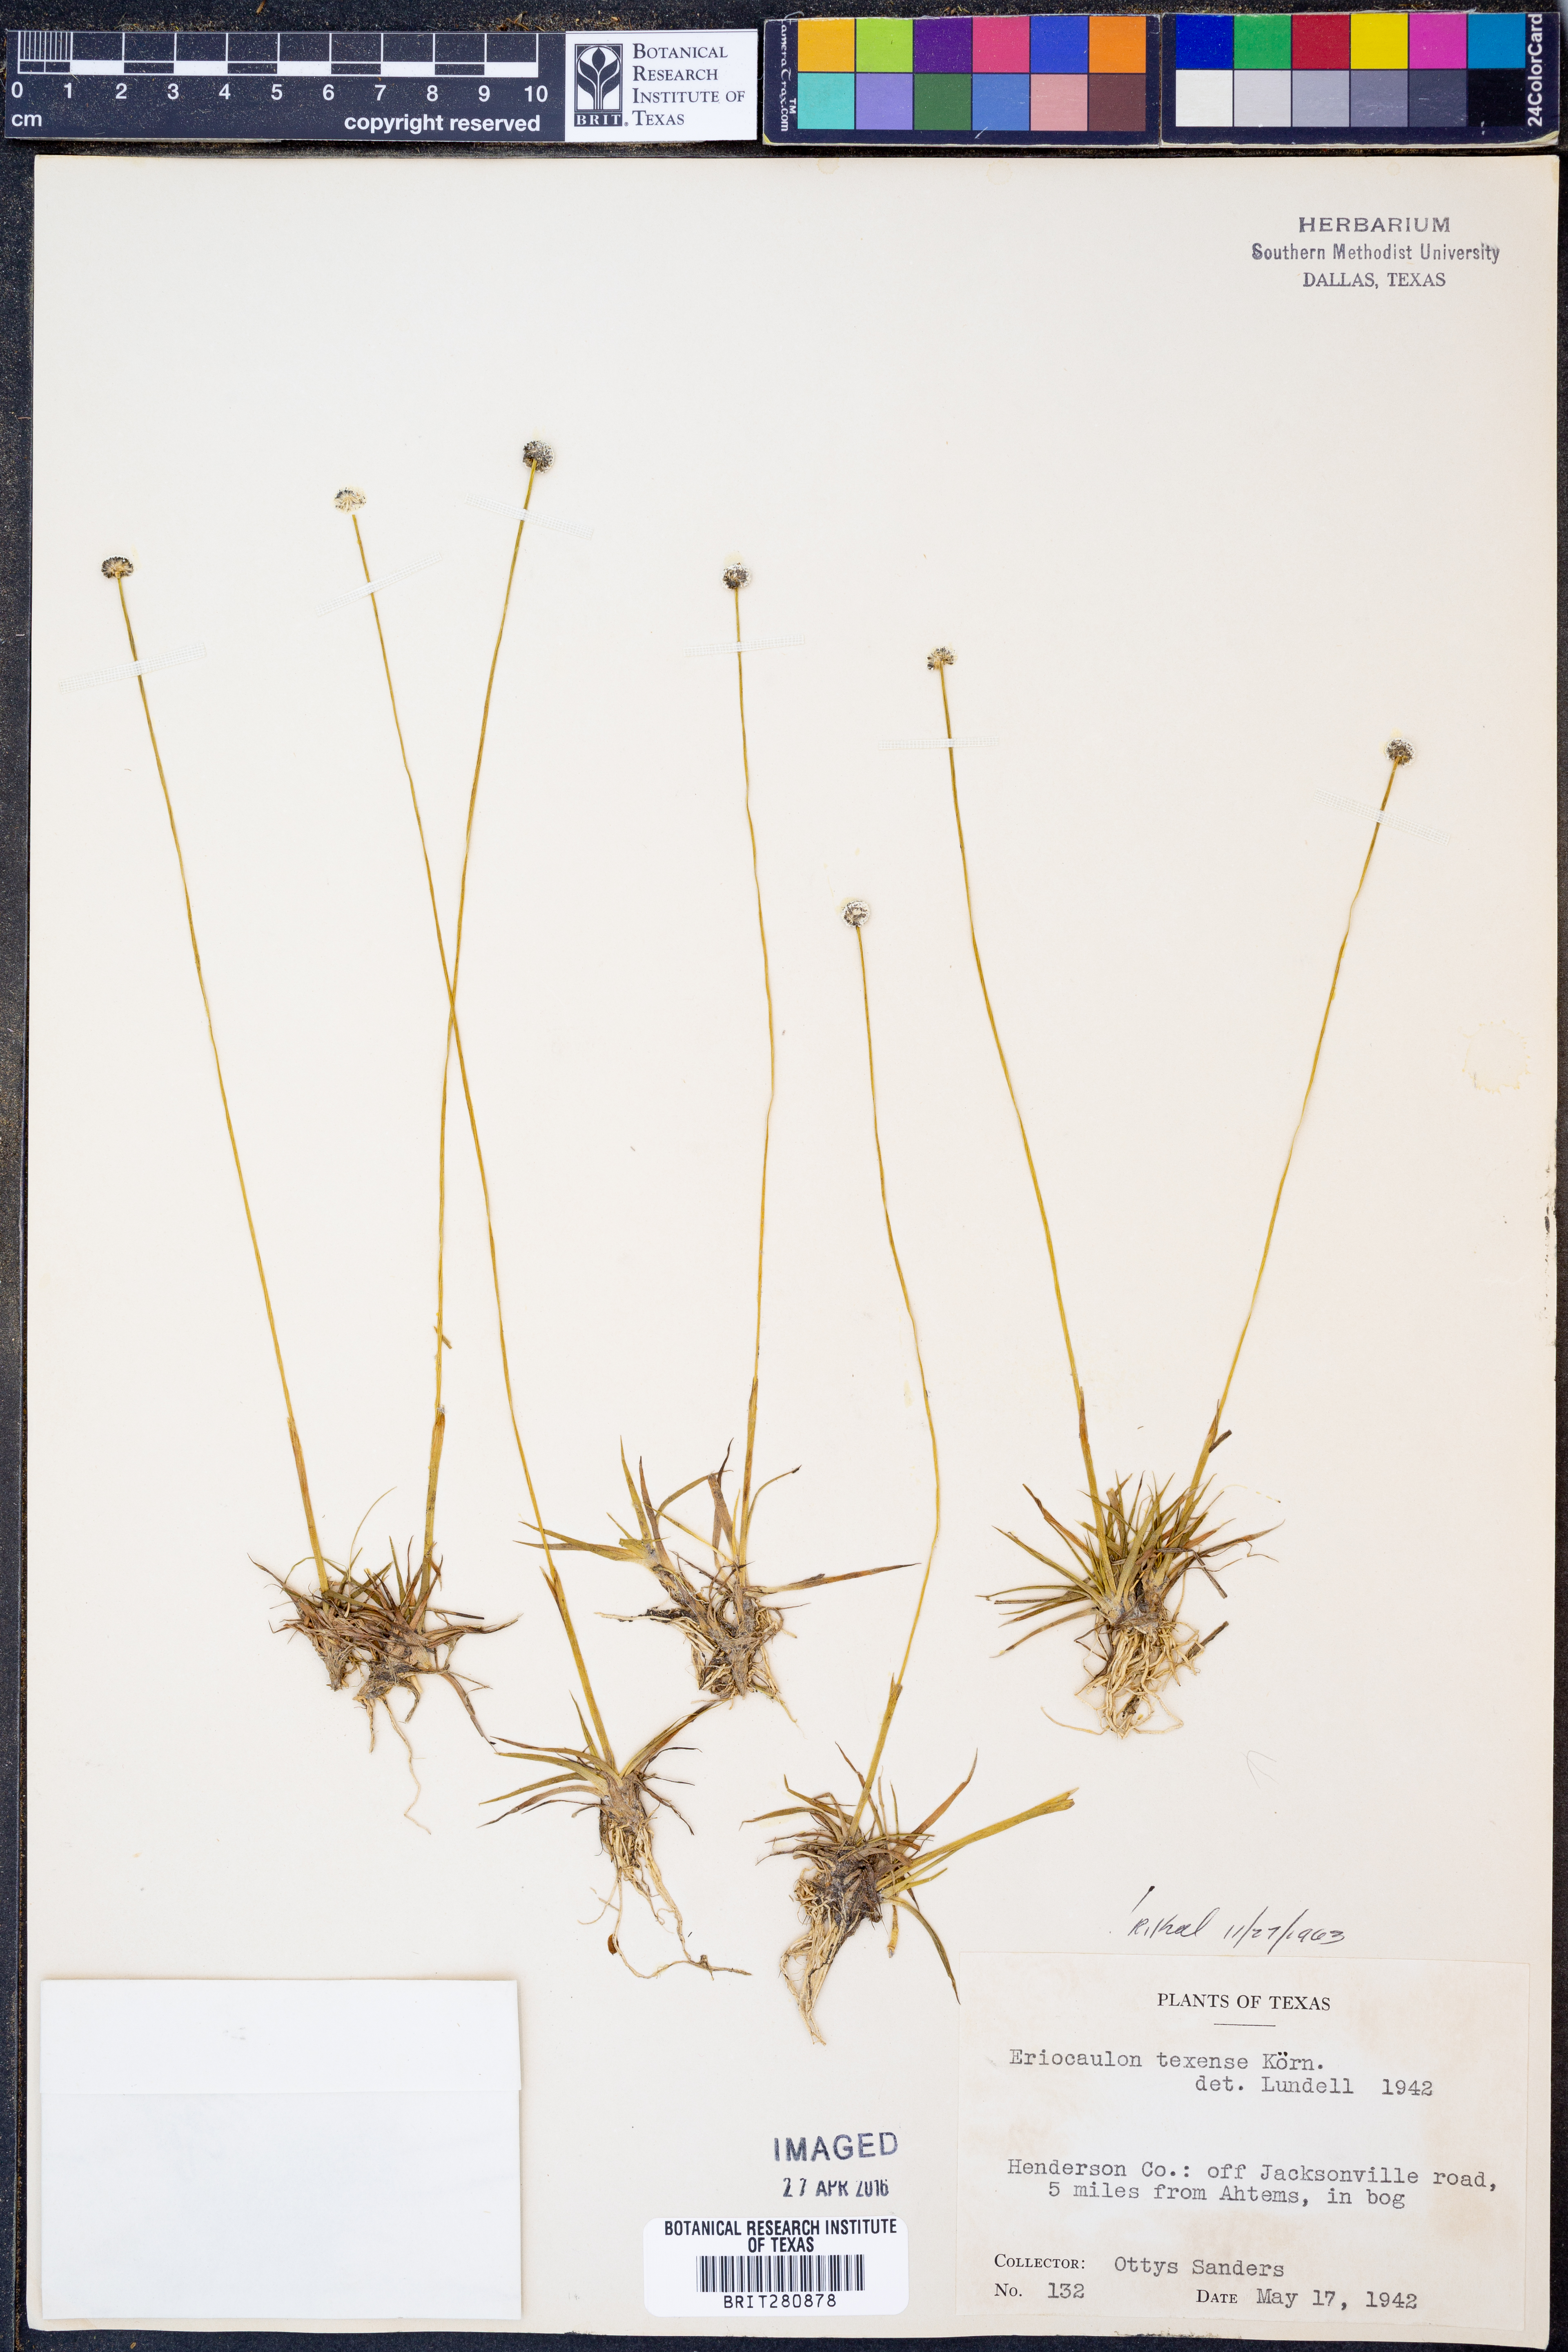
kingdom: Plantae
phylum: Tracheophyta
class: Liliopsida
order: Poales
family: Eriocaulaceae
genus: Eriocaulon
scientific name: Eriocaulon texense
